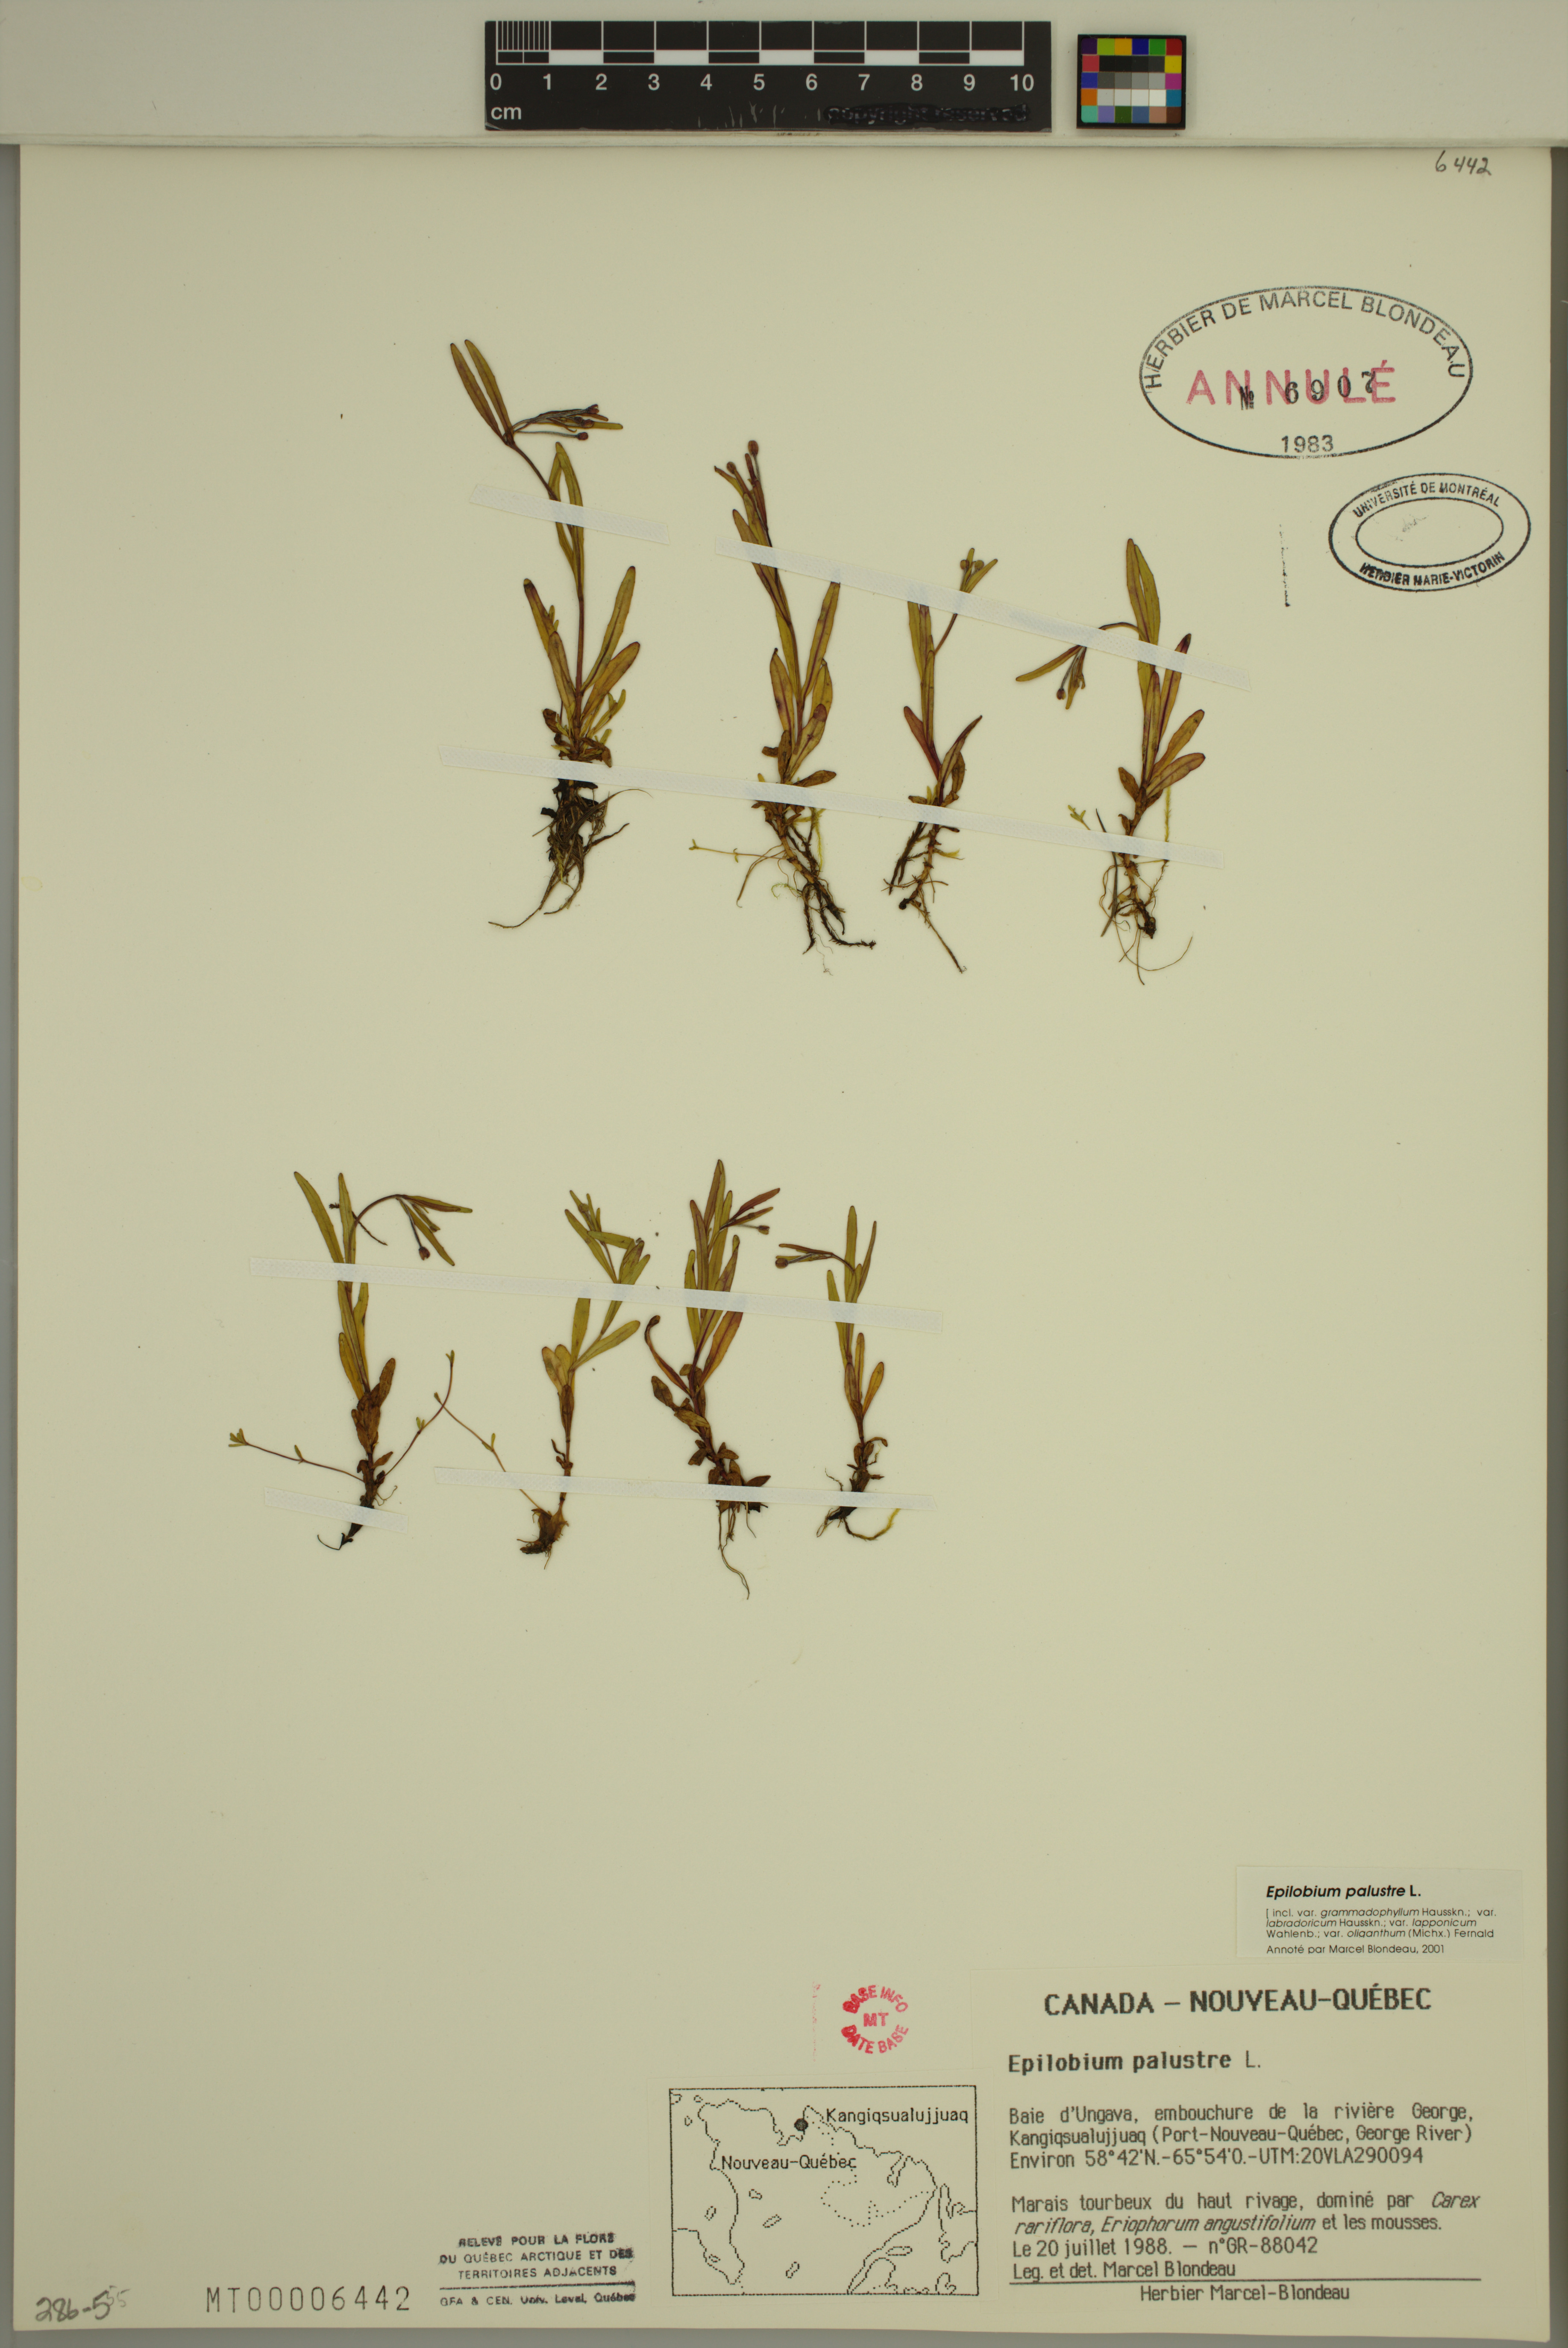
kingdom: Plantae
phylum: Tracheophyta
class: Magnoliopsida
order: Myrtales
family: Onagraceae
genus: Epilobium
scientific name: Epilobium palustre
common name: Marsh willowherb
